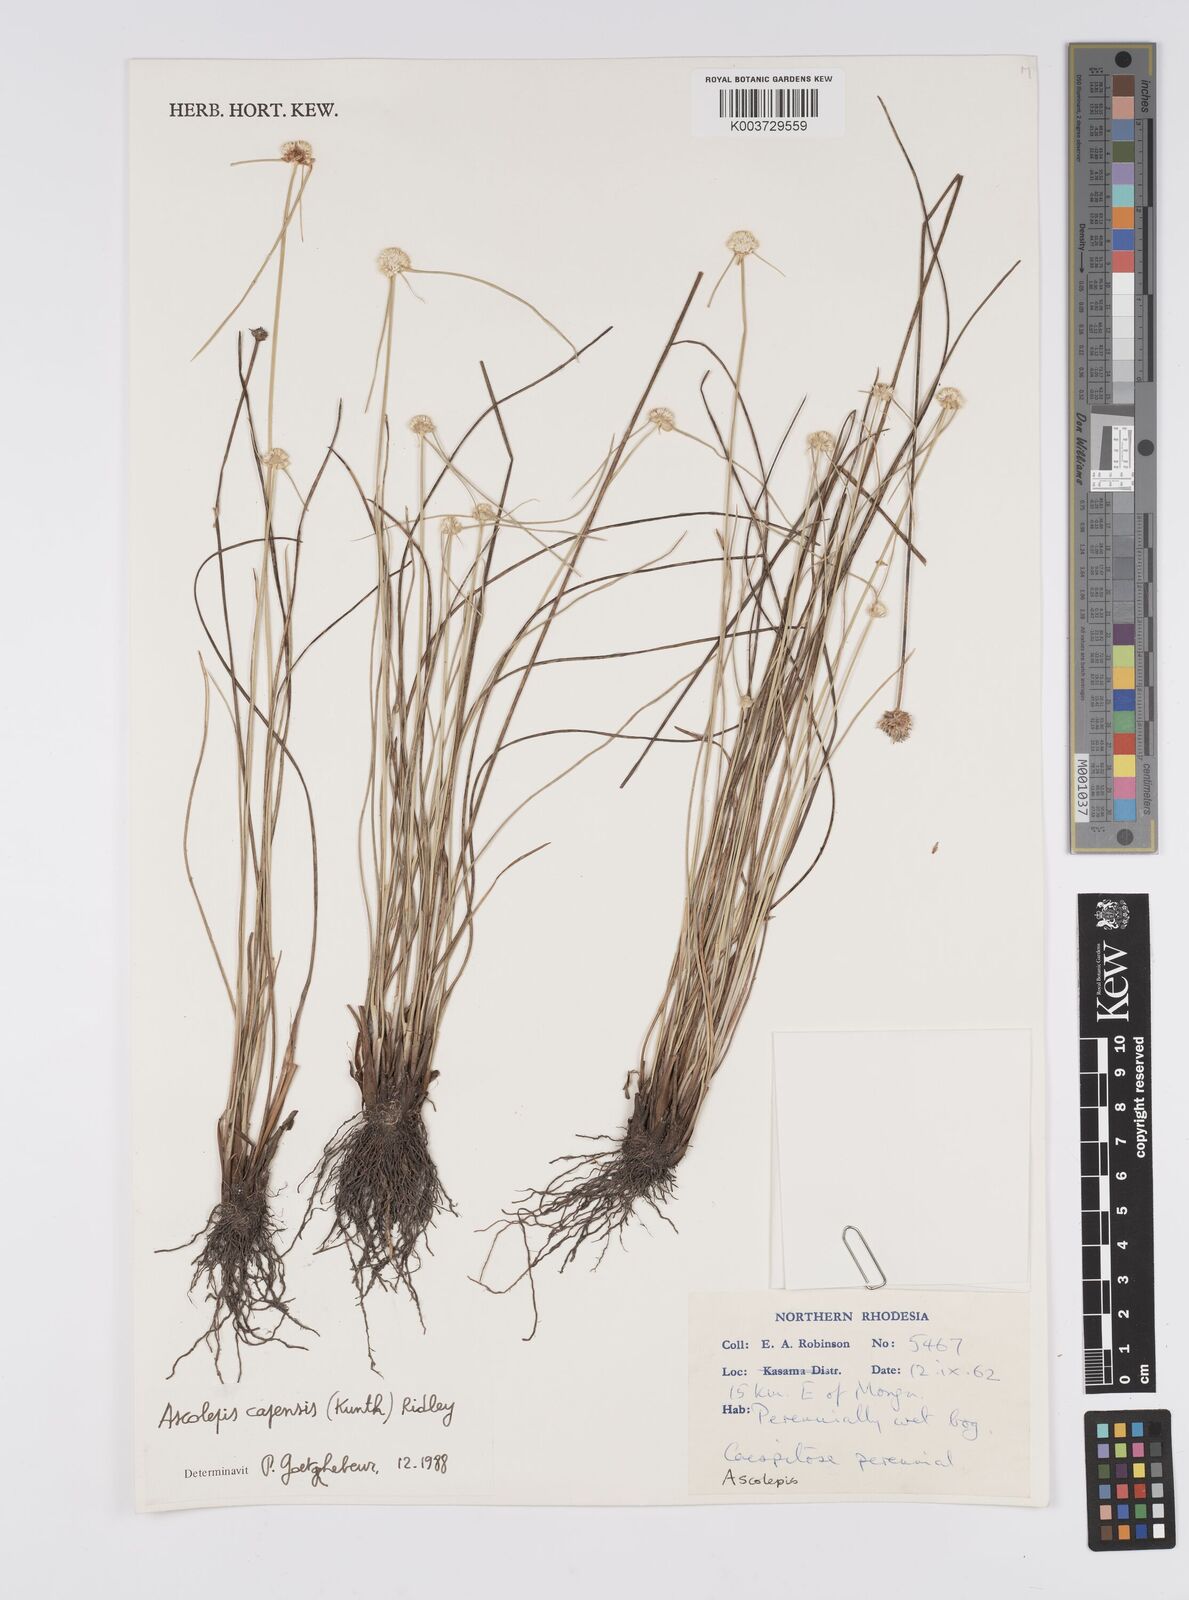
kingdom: Plantae
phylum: Tracheophyta
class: Liliopsida
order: Poales
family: Cyperaceae
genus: Cyperus
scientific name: Cyperus
